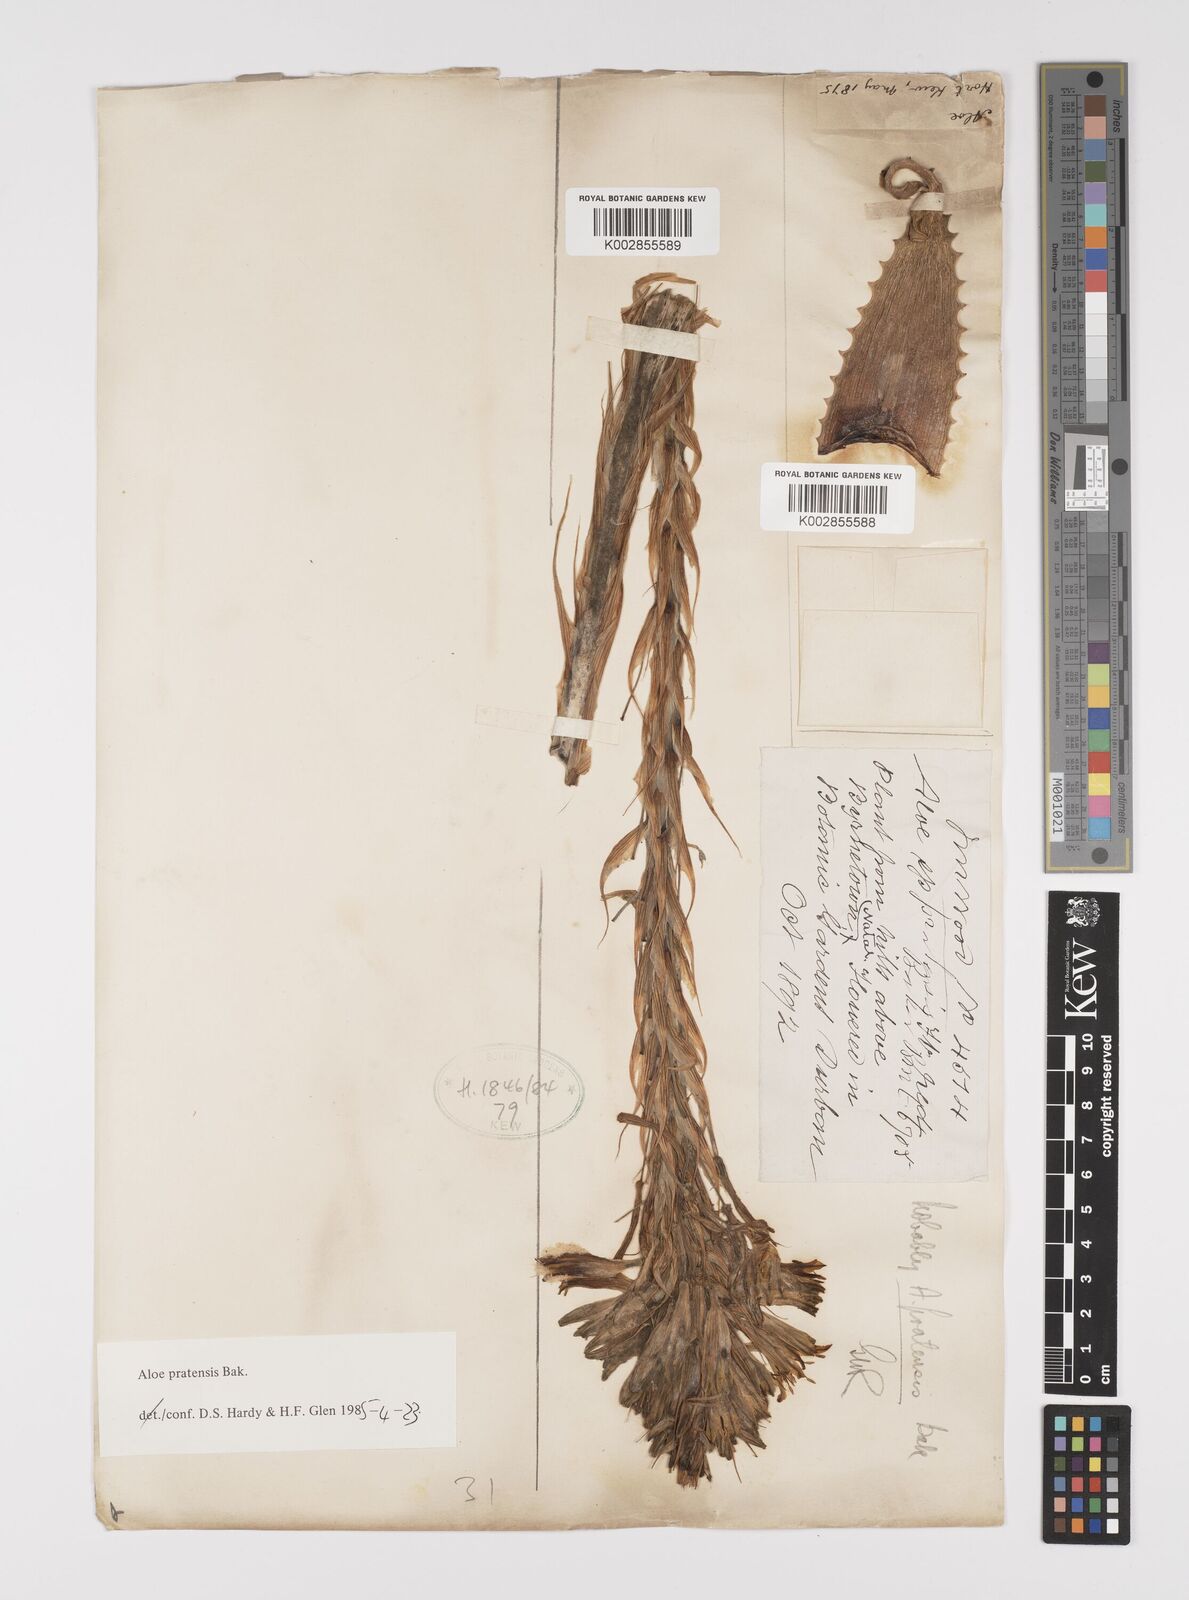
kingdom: Plantae
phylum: Tracheophyta
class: Liliopsida
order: Asparagales
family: Asphodelaceae
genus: Aloe
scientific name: Aloe pratensis
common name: Meadow aloe
